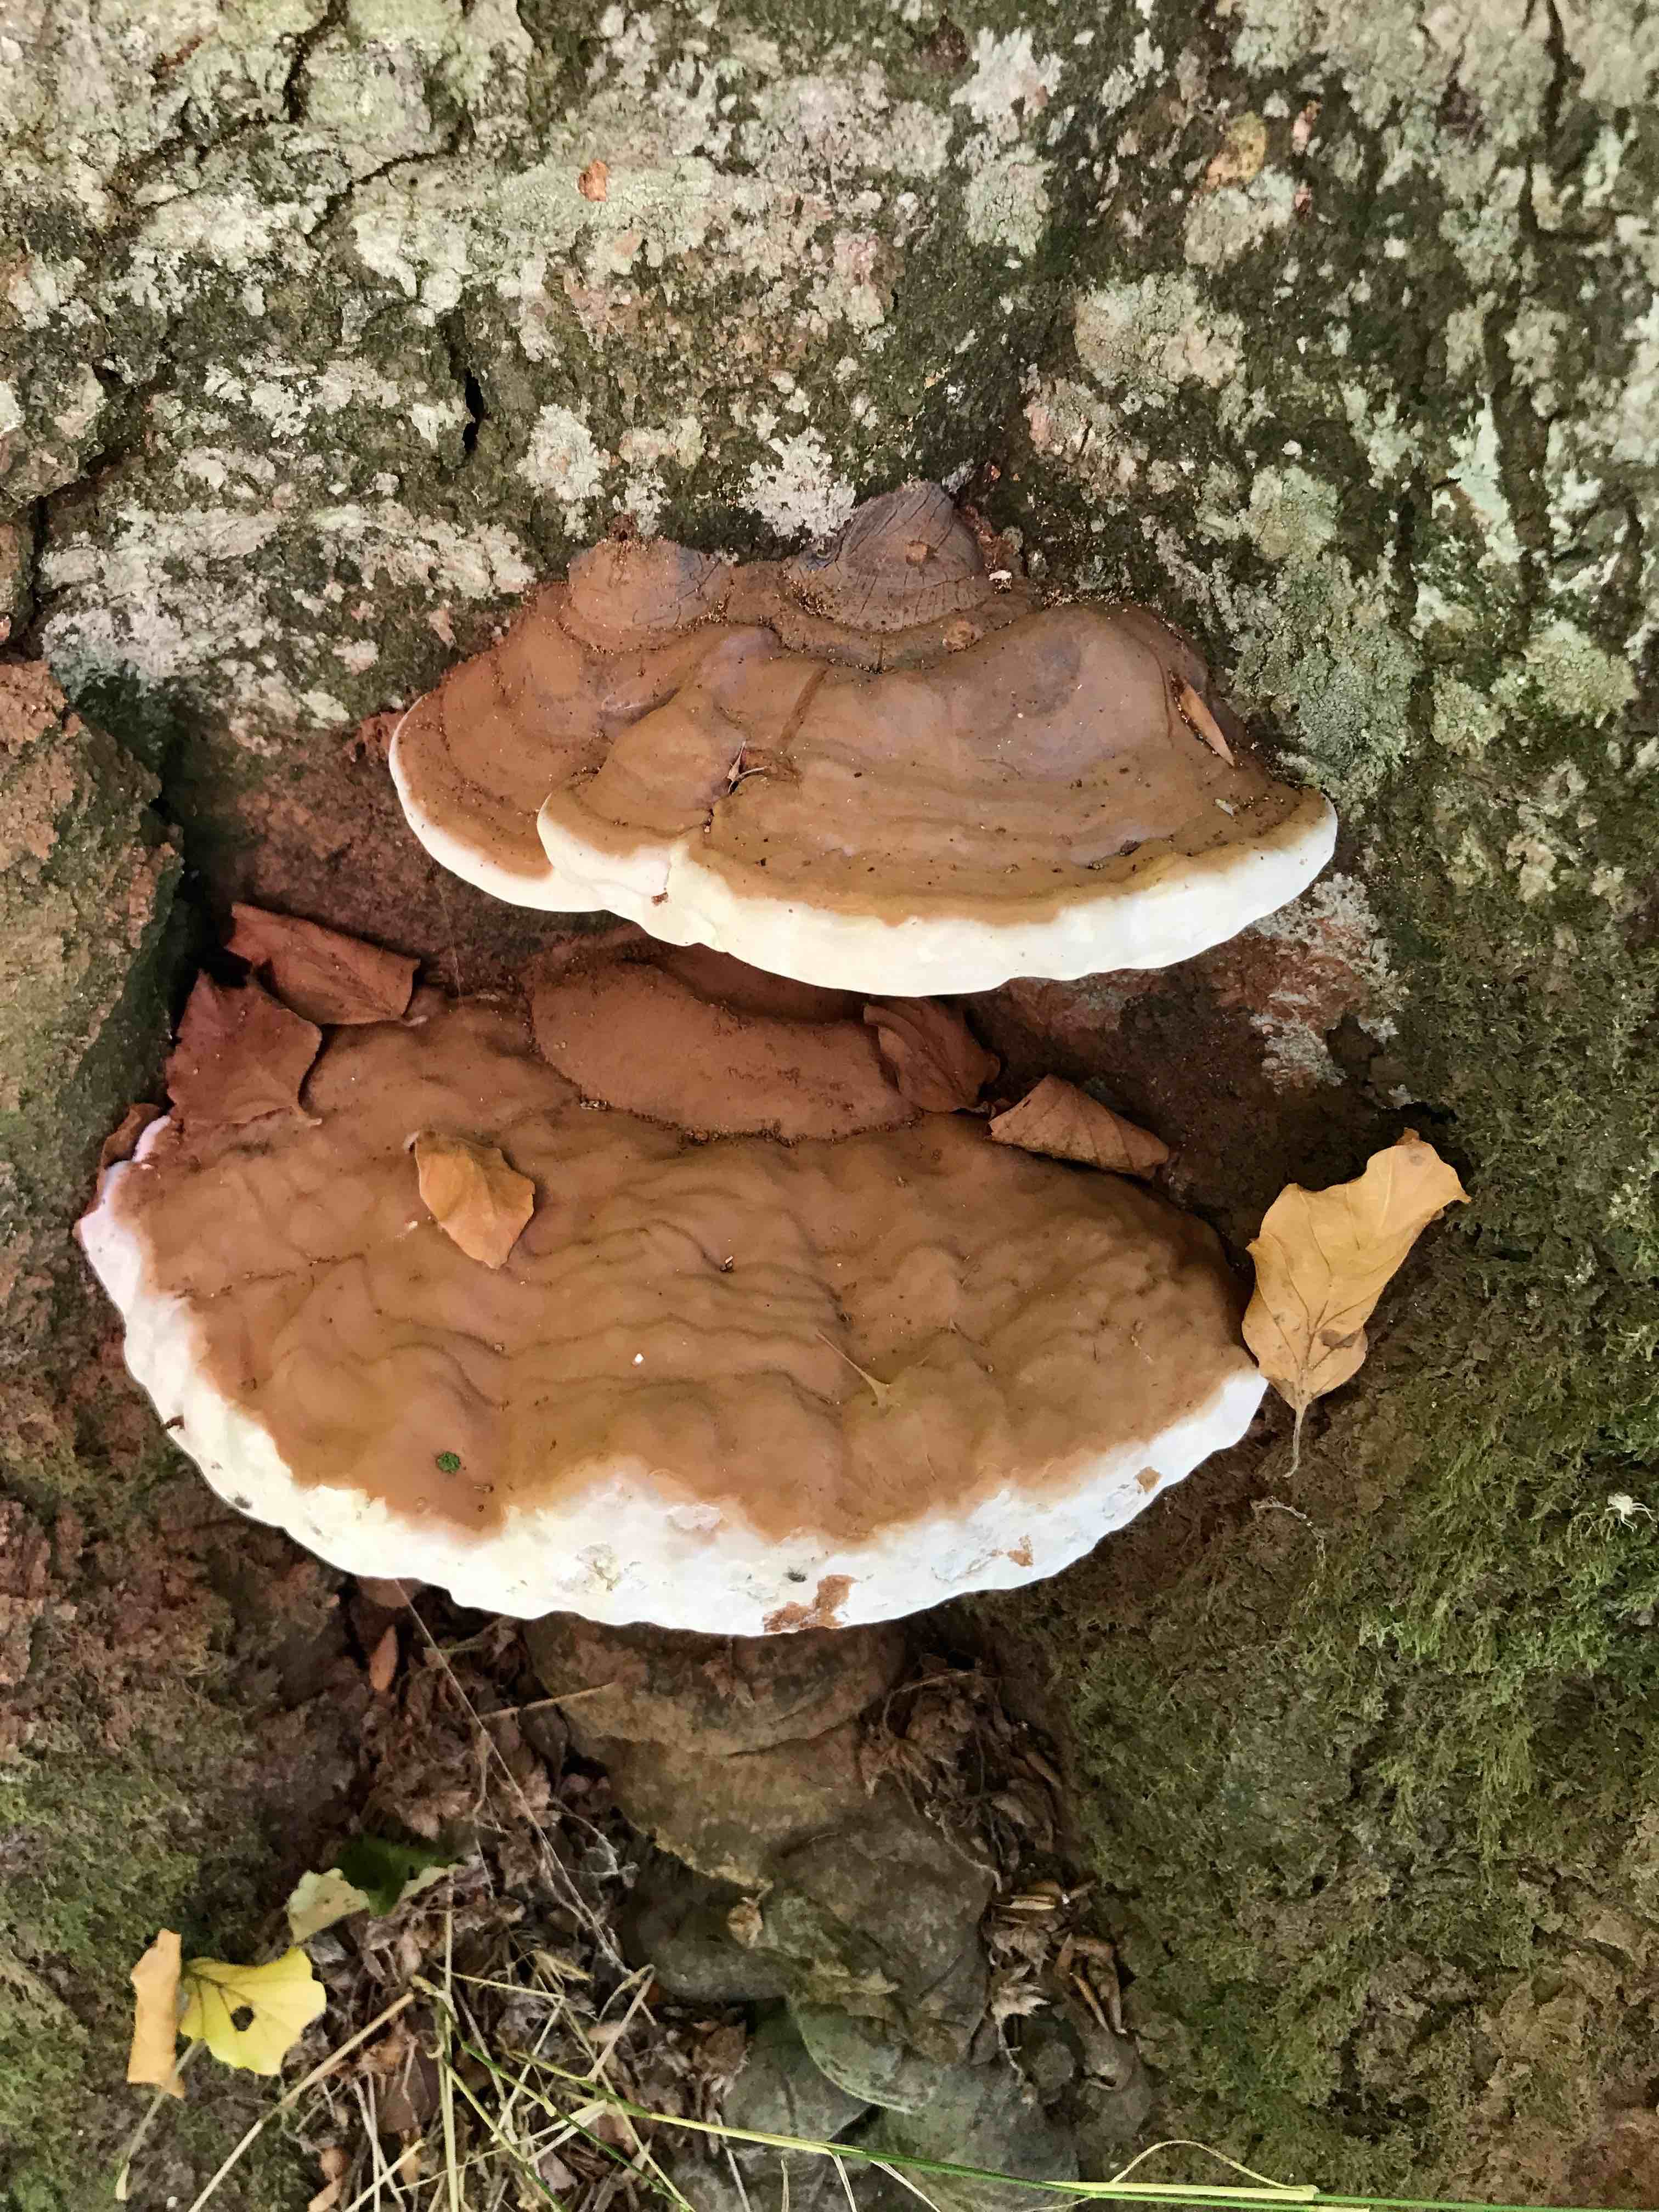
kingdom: Fungi
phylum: Basidiomycota
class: Agaricomycetes
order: Polyporales
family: Polyporaceae
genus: Ganoderma
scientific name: Ganoderma pfeifferi
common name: kobberrød lakporesvamp
